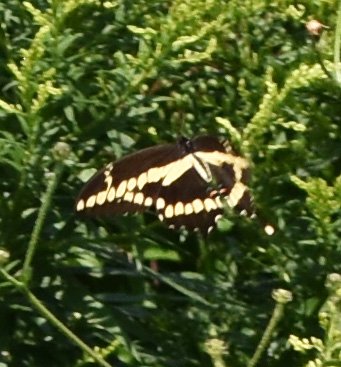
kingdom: Animalia
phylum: Arthropoda
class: Insecta
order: Lepidoptera
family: Papilionidae
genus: Papilio
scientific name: Papilio cresphontes
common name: Eastern Giant Swallowtail
